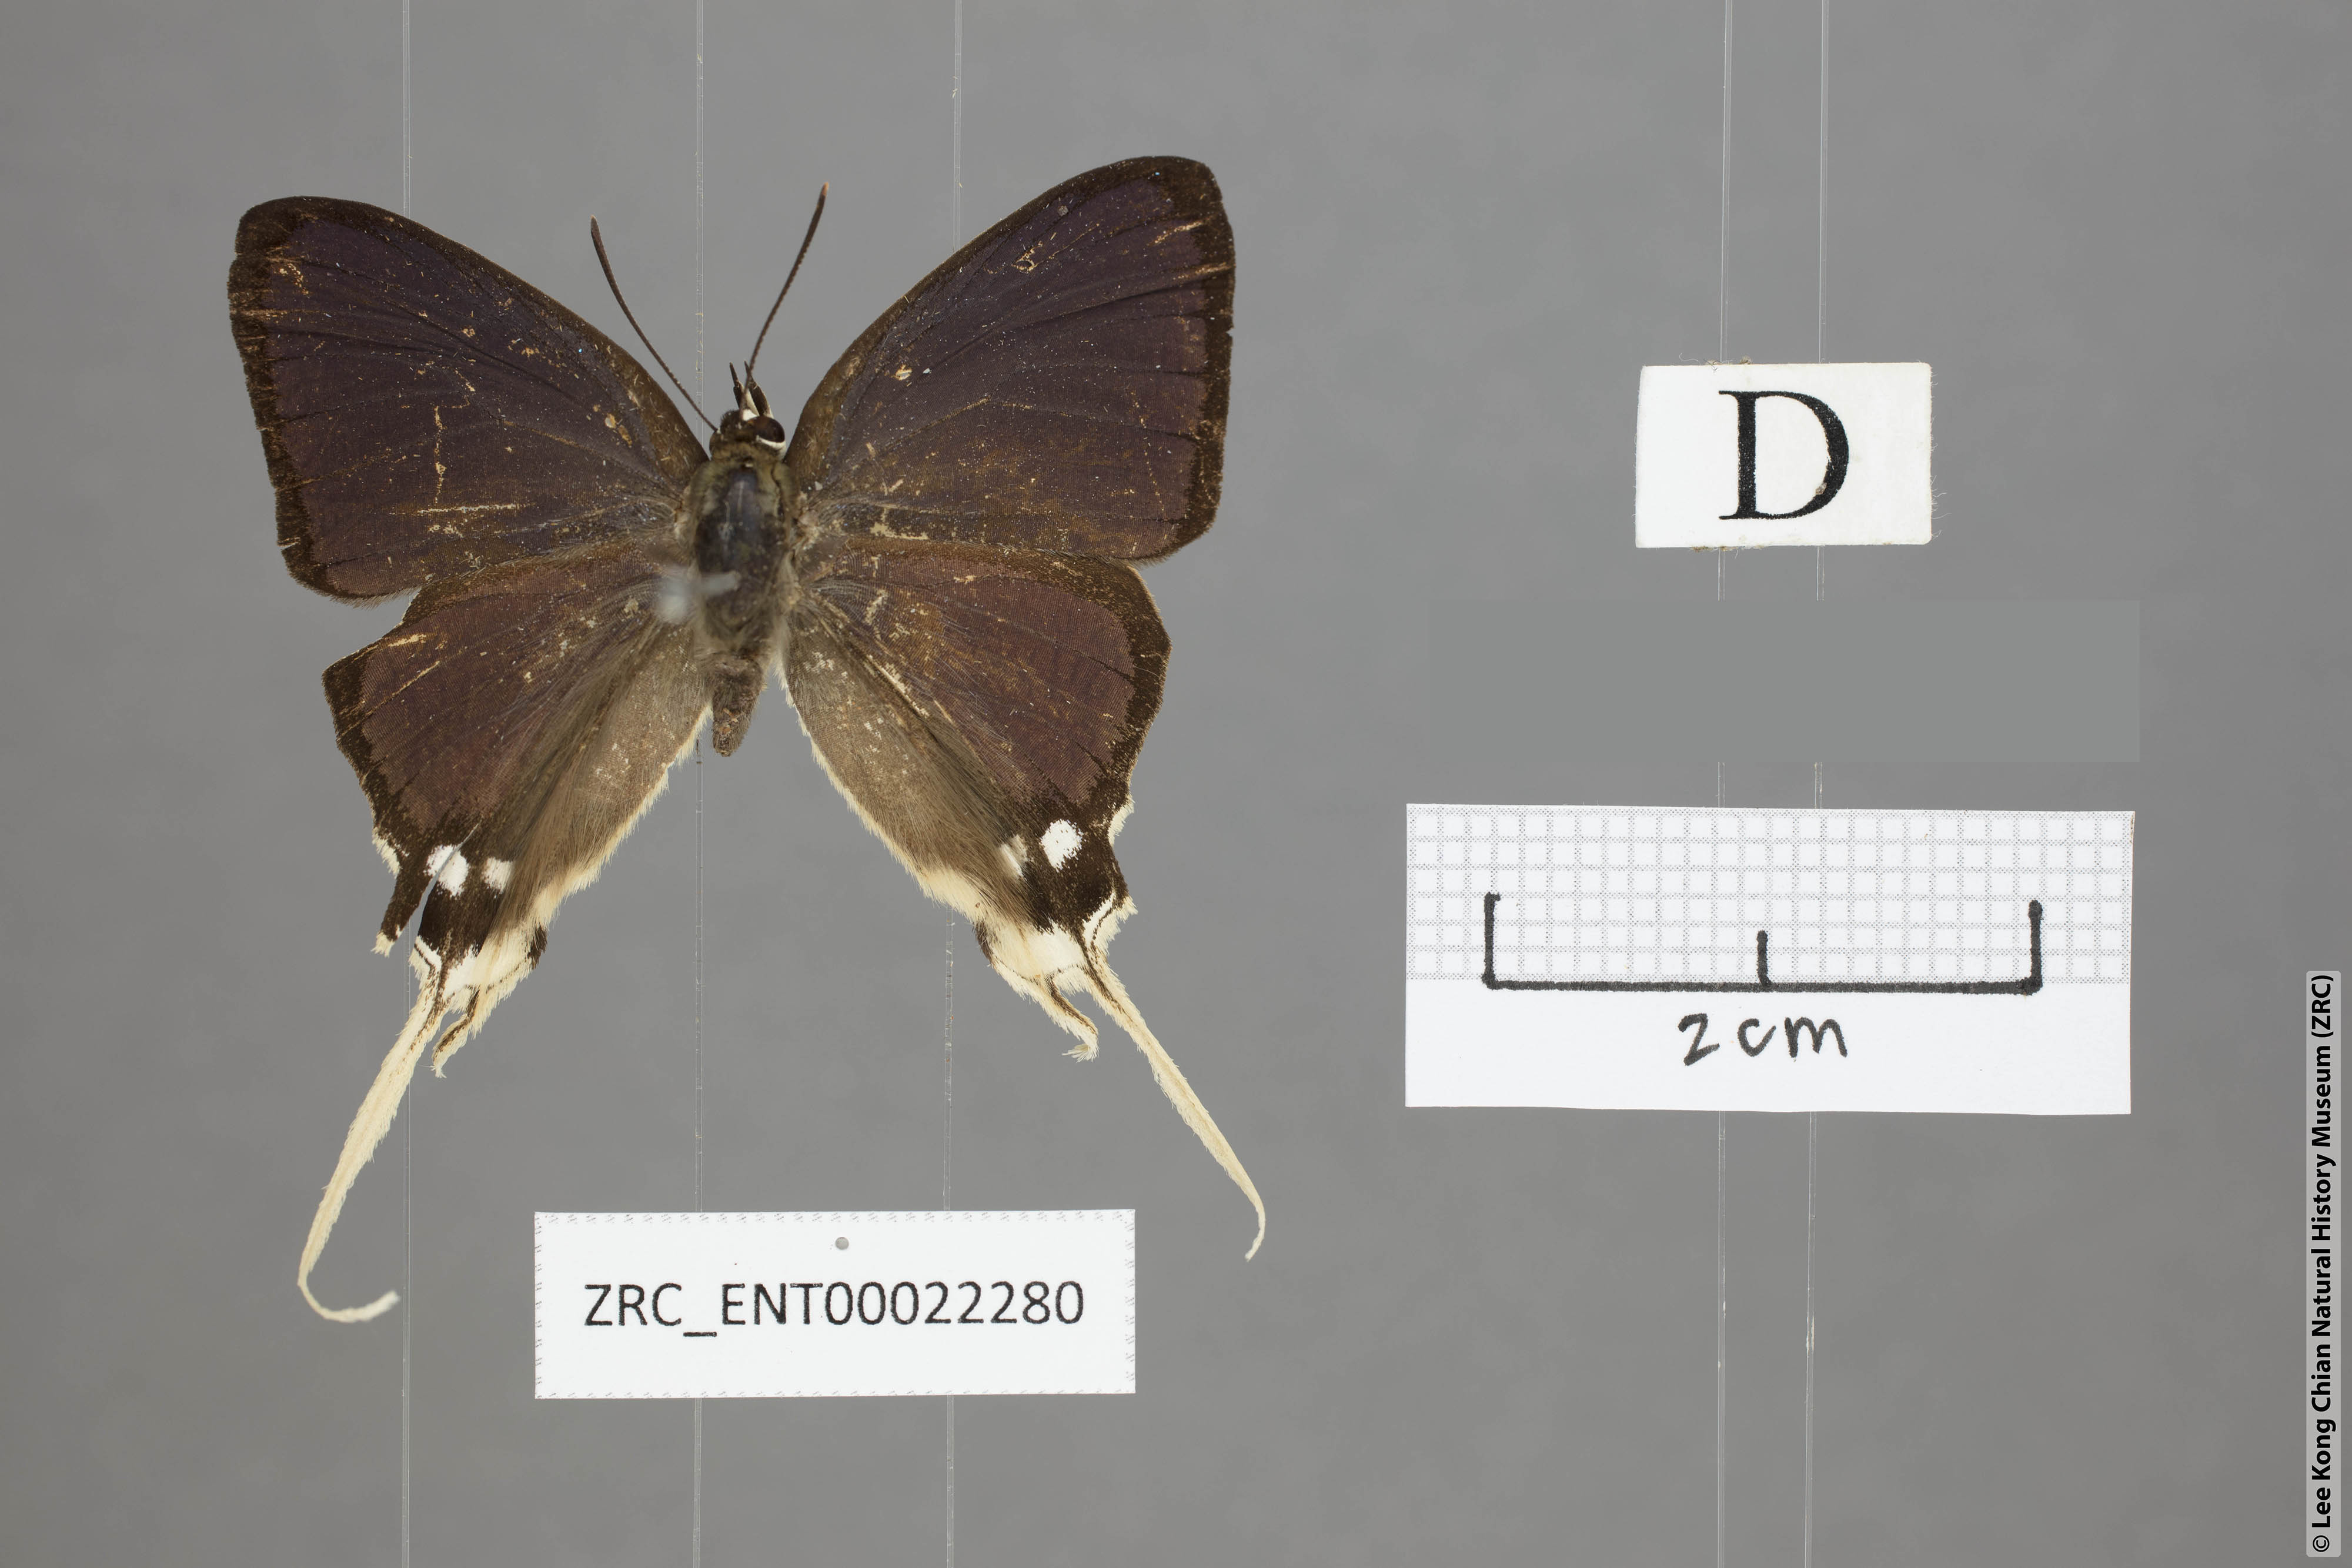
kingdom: Animalia
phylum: Arthropoda
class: Insecta
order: Lepidoptera
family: Lycaenidae
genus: Ticherra
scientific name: Ticherra acte
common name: Blue imperial
